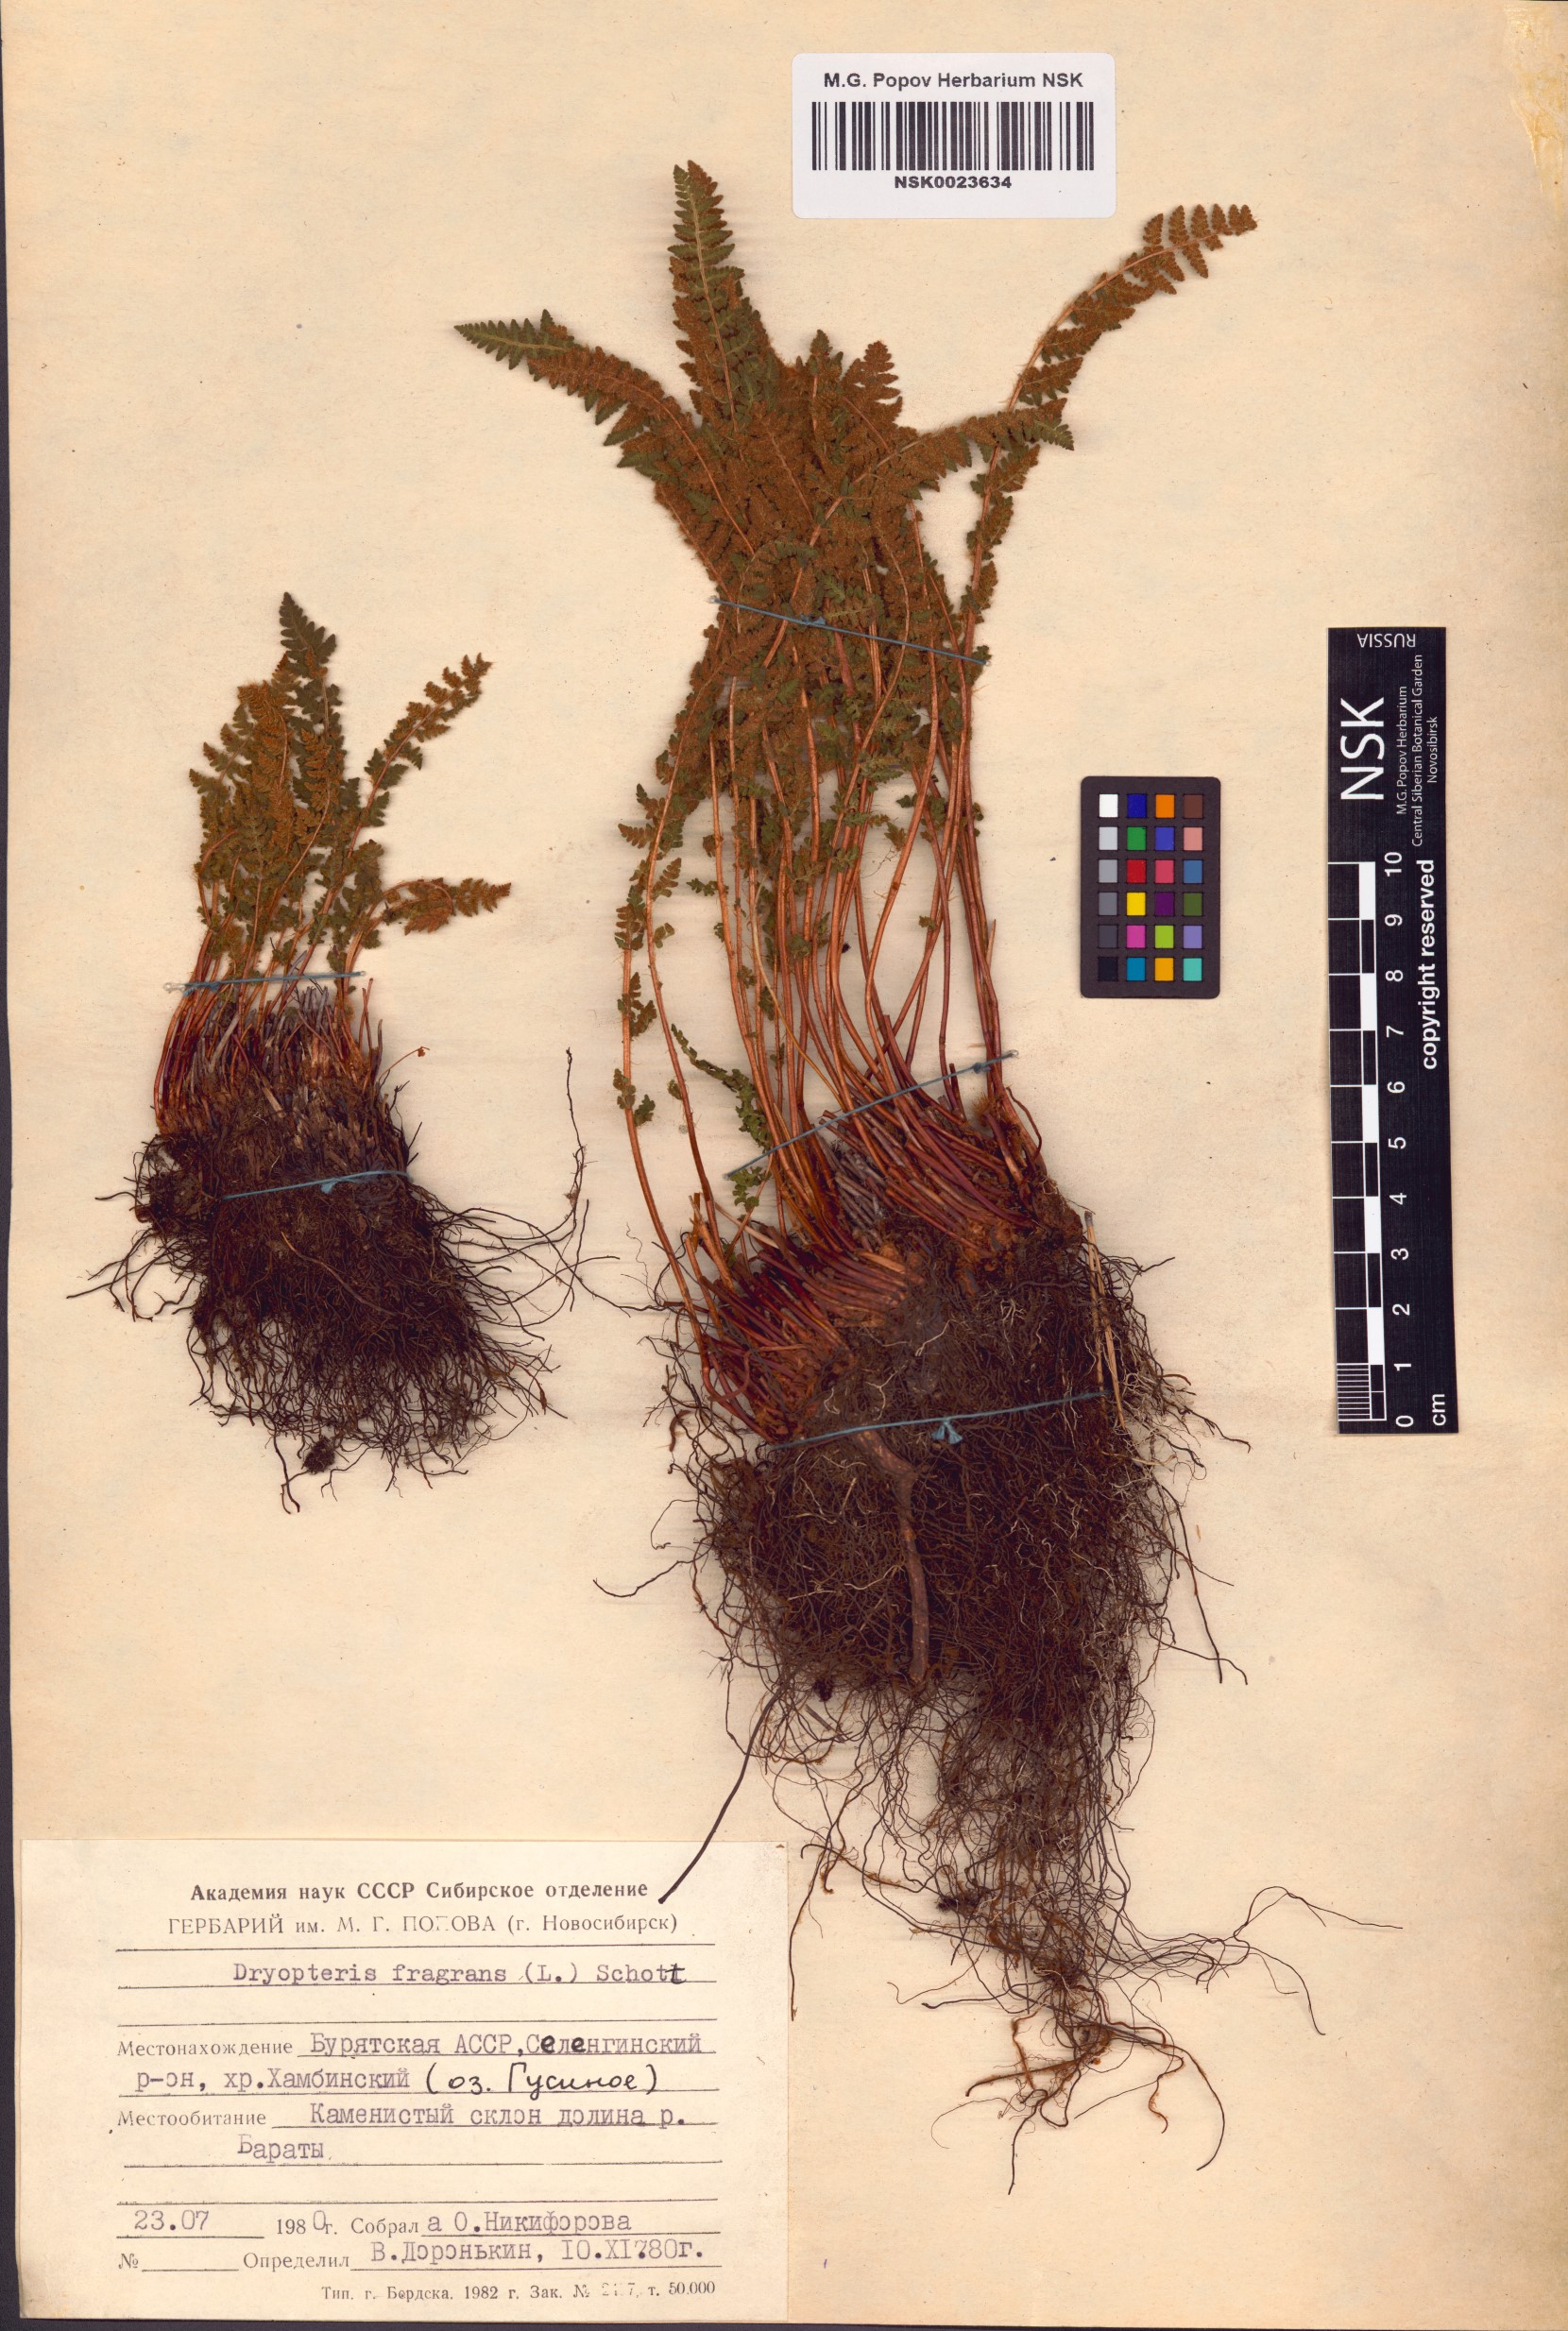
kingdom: Plantae
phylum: Tracheophyta
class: Polypodiopsida
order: Polypodiales
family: Dryopteridaceae
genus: Dryopteris
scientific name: Dryopteris fragrans
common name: Fragrant wood fern
